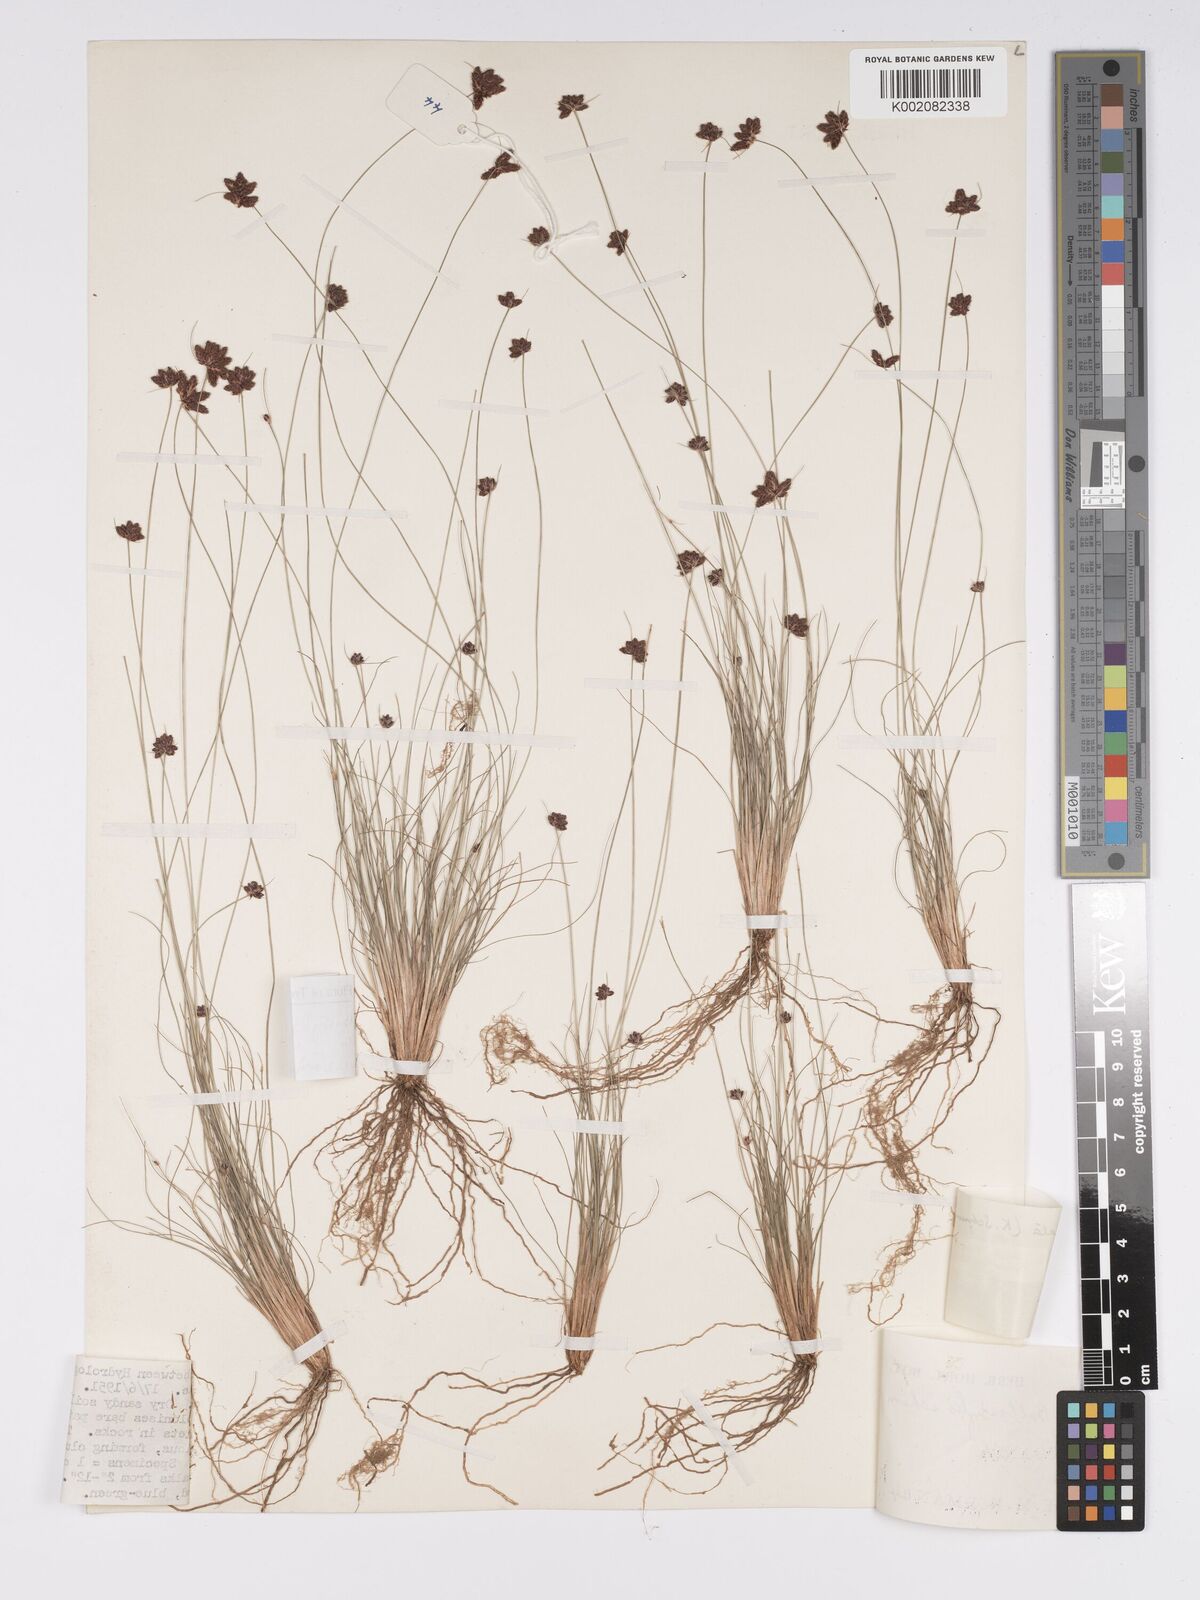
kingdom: Plantae
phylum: Tracheophyta
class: Liliopsida
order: Poales
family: Cyperaceae
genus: Bulbostylis
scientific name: Bulbostylis ugandensis
